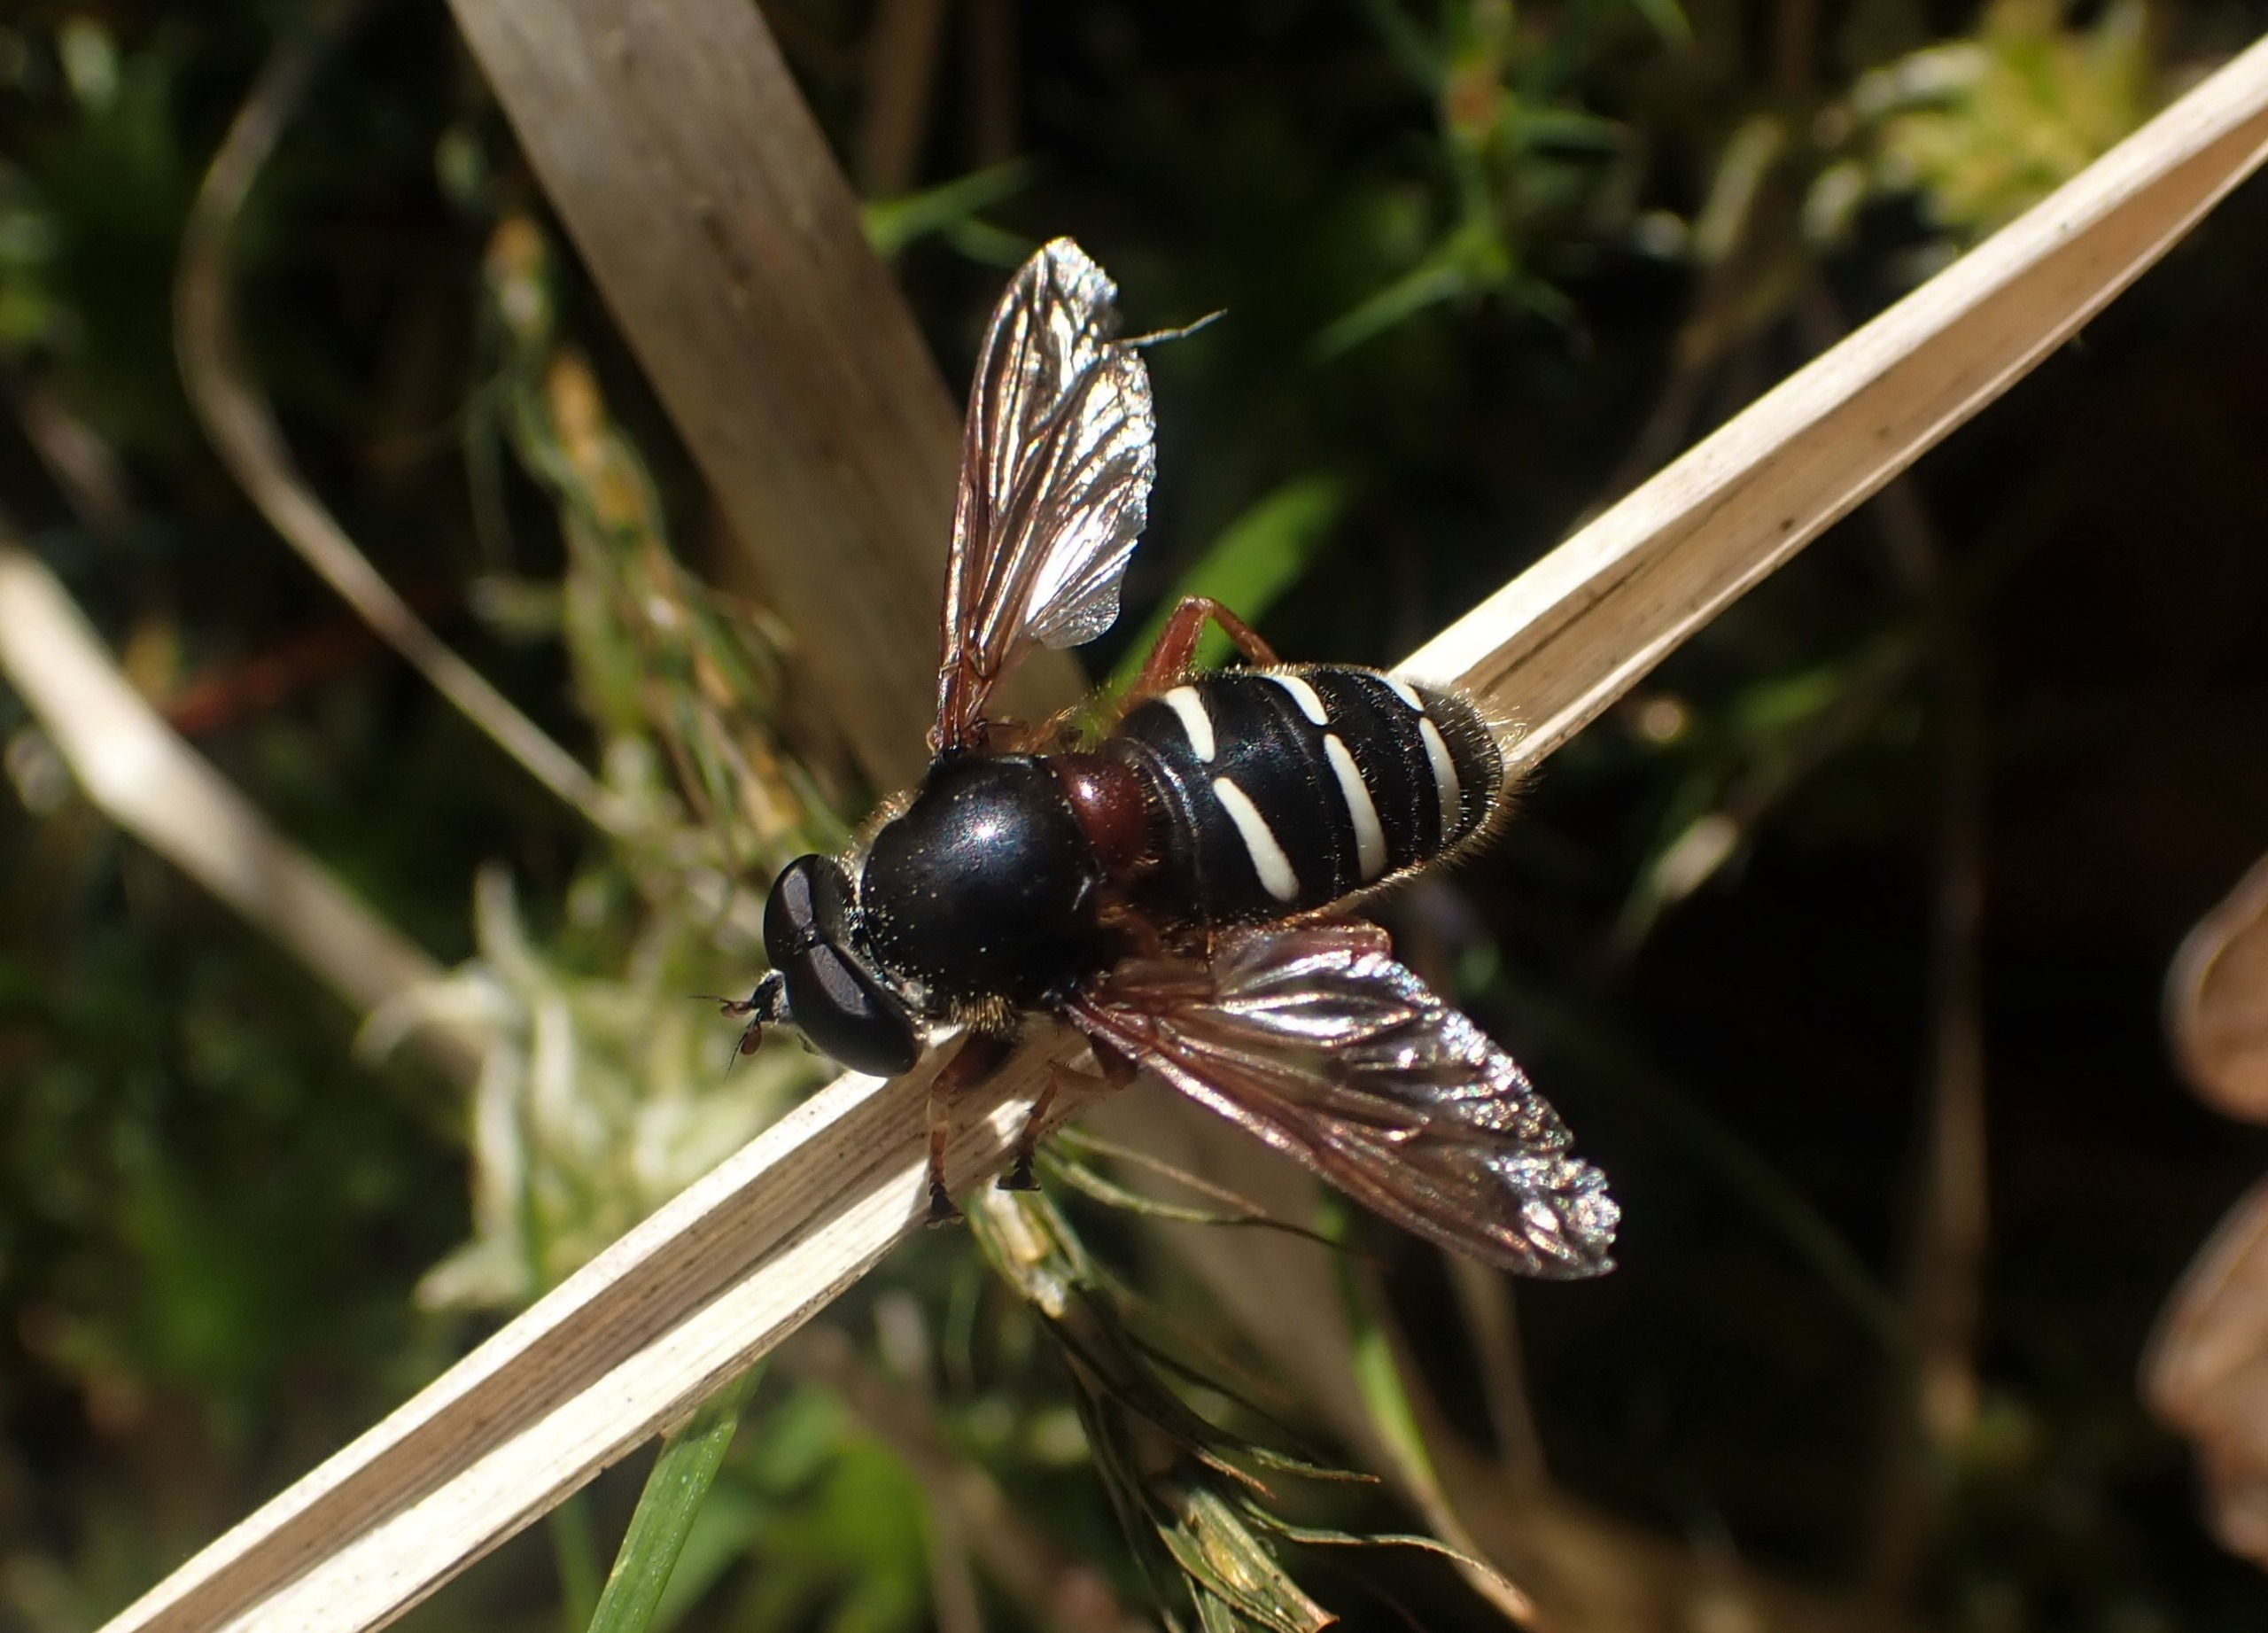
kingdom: Animalia
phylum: Arthropoda
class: Insecta
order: Diptera
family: Syrphidae
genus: Sericomyia
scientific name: Sericomyia lappona
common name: Tidlig silkesvirreflue
